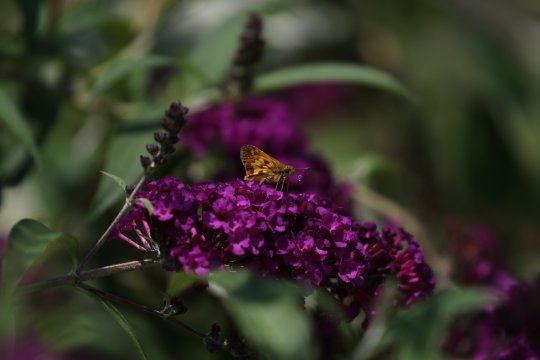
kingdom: Animalia
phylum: Arthropoda
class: Insecta
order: Lepidoptera
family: Hesperiidae
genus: Polites
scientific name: Polites coras
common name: Peck's Skipper
